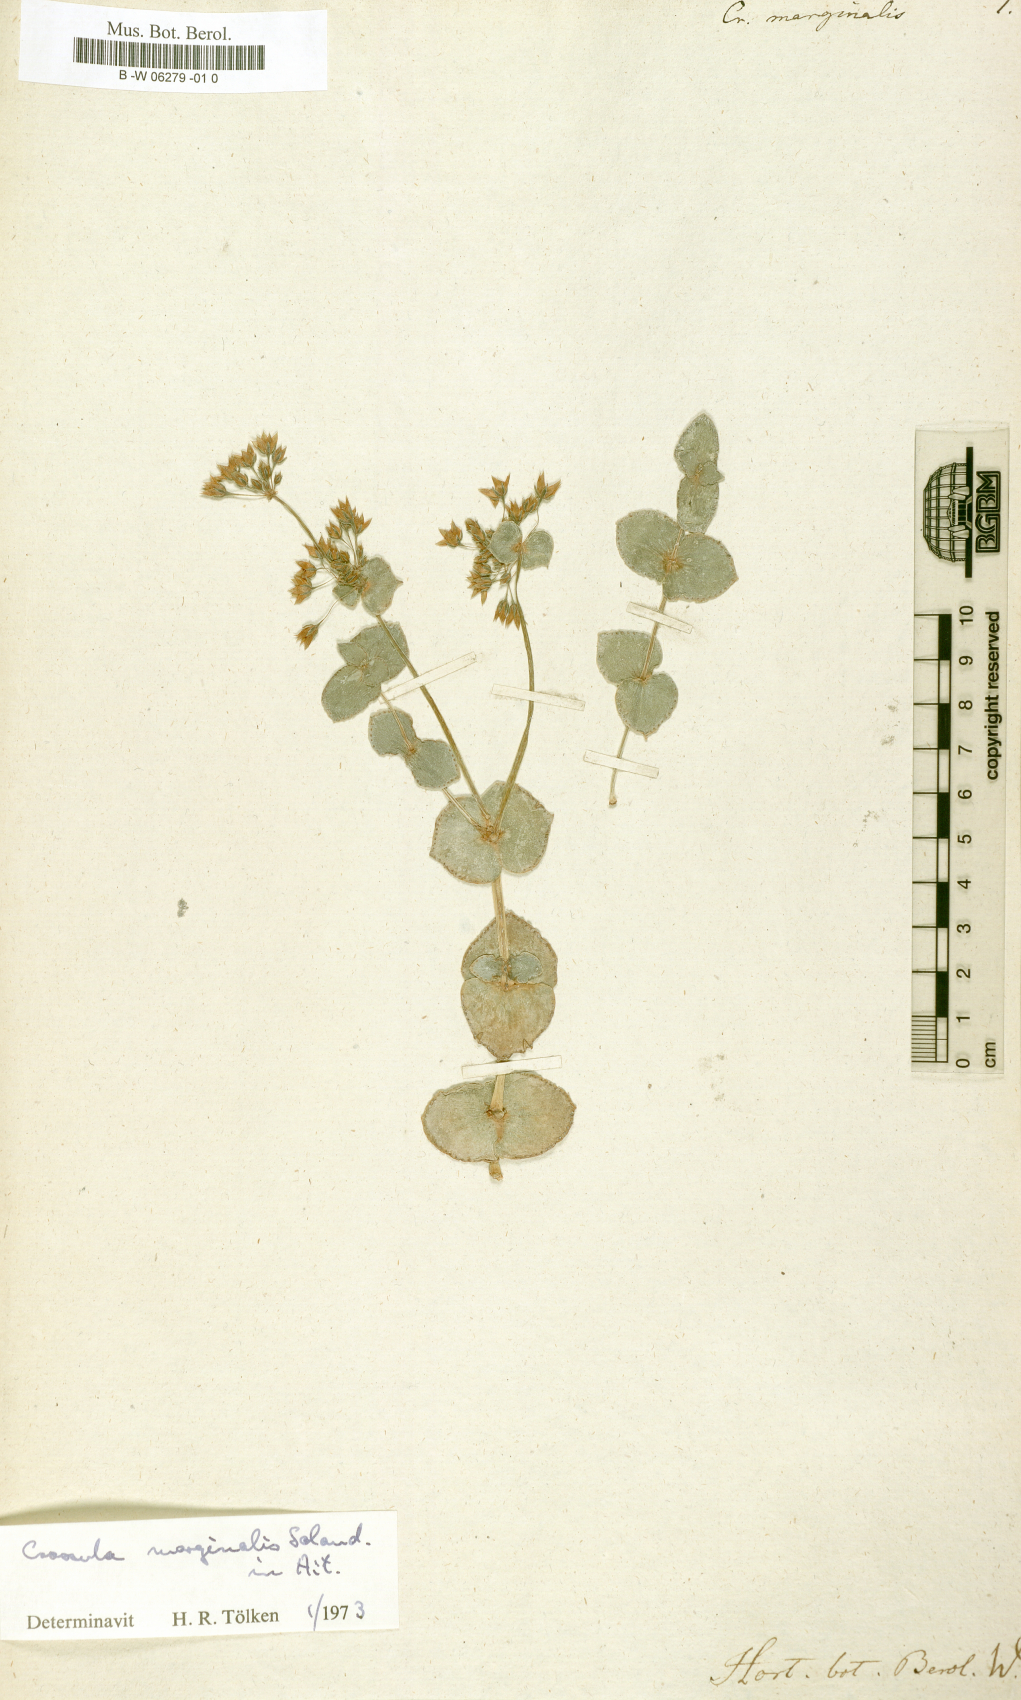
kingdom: Plantae
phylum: Tracheophyta
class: Magnoliopsida
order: Saxifragales
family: Crassulaceae
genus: Crassula
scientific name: Crassula pellucida
